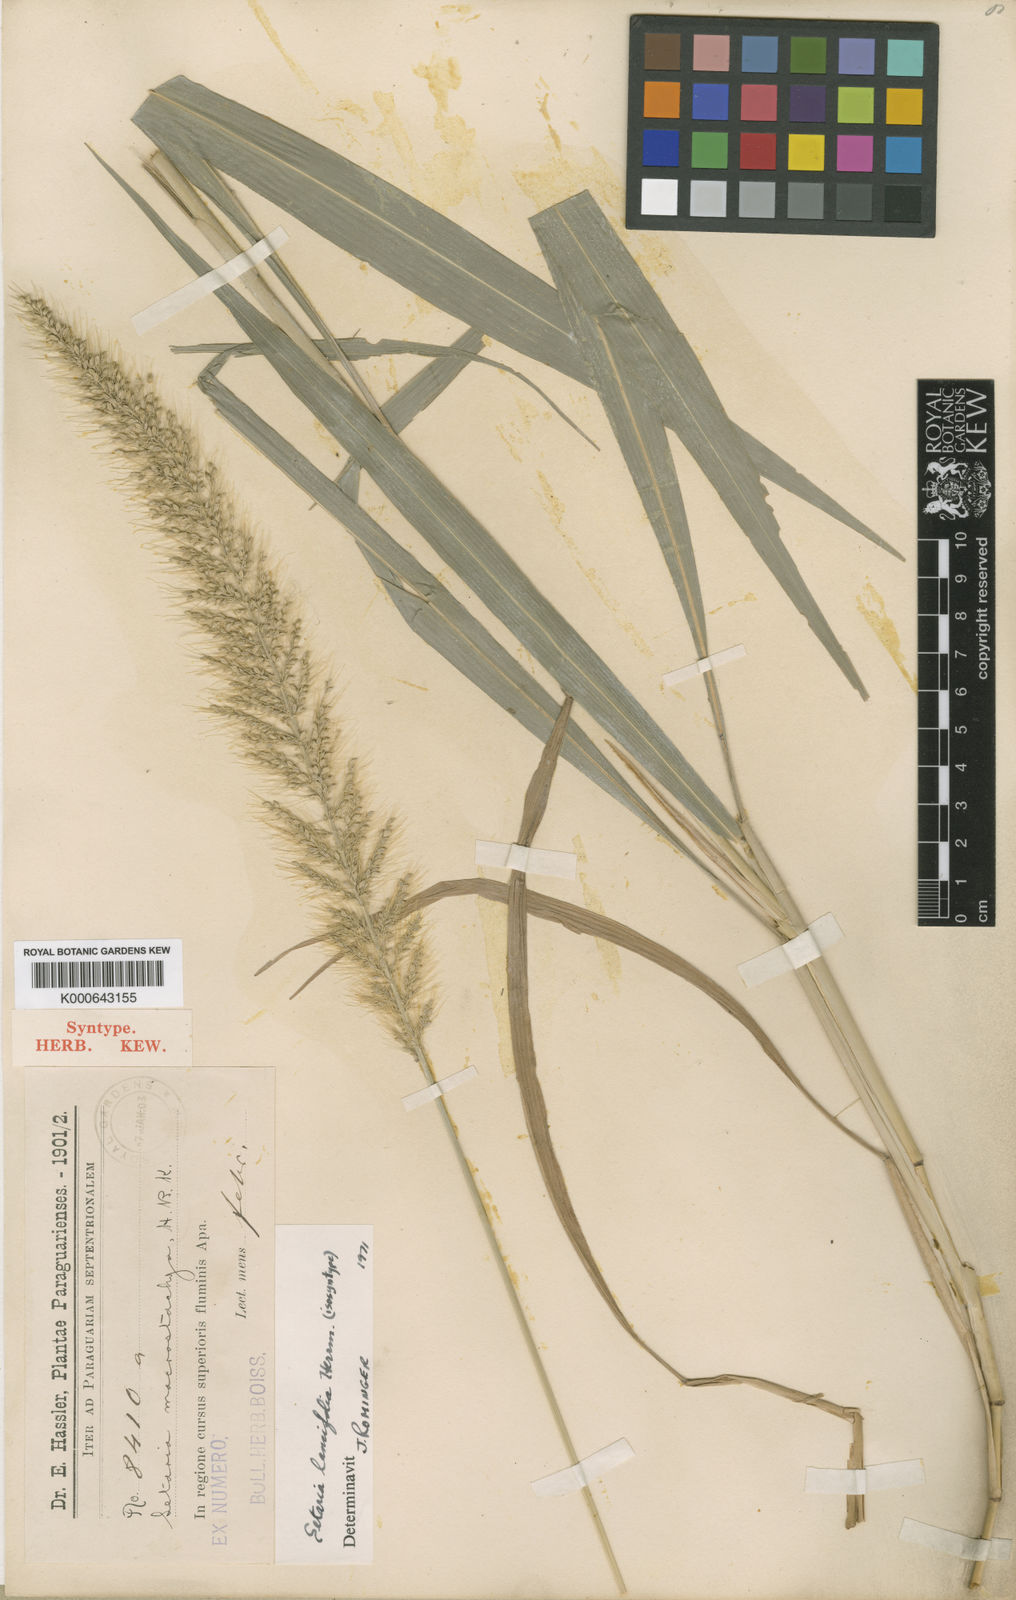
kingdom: Plantae
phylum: Tracheophyta
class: Liliopsida
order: Poales
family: Poaceae
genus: Setaria
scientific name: Setaria vulpiseta
